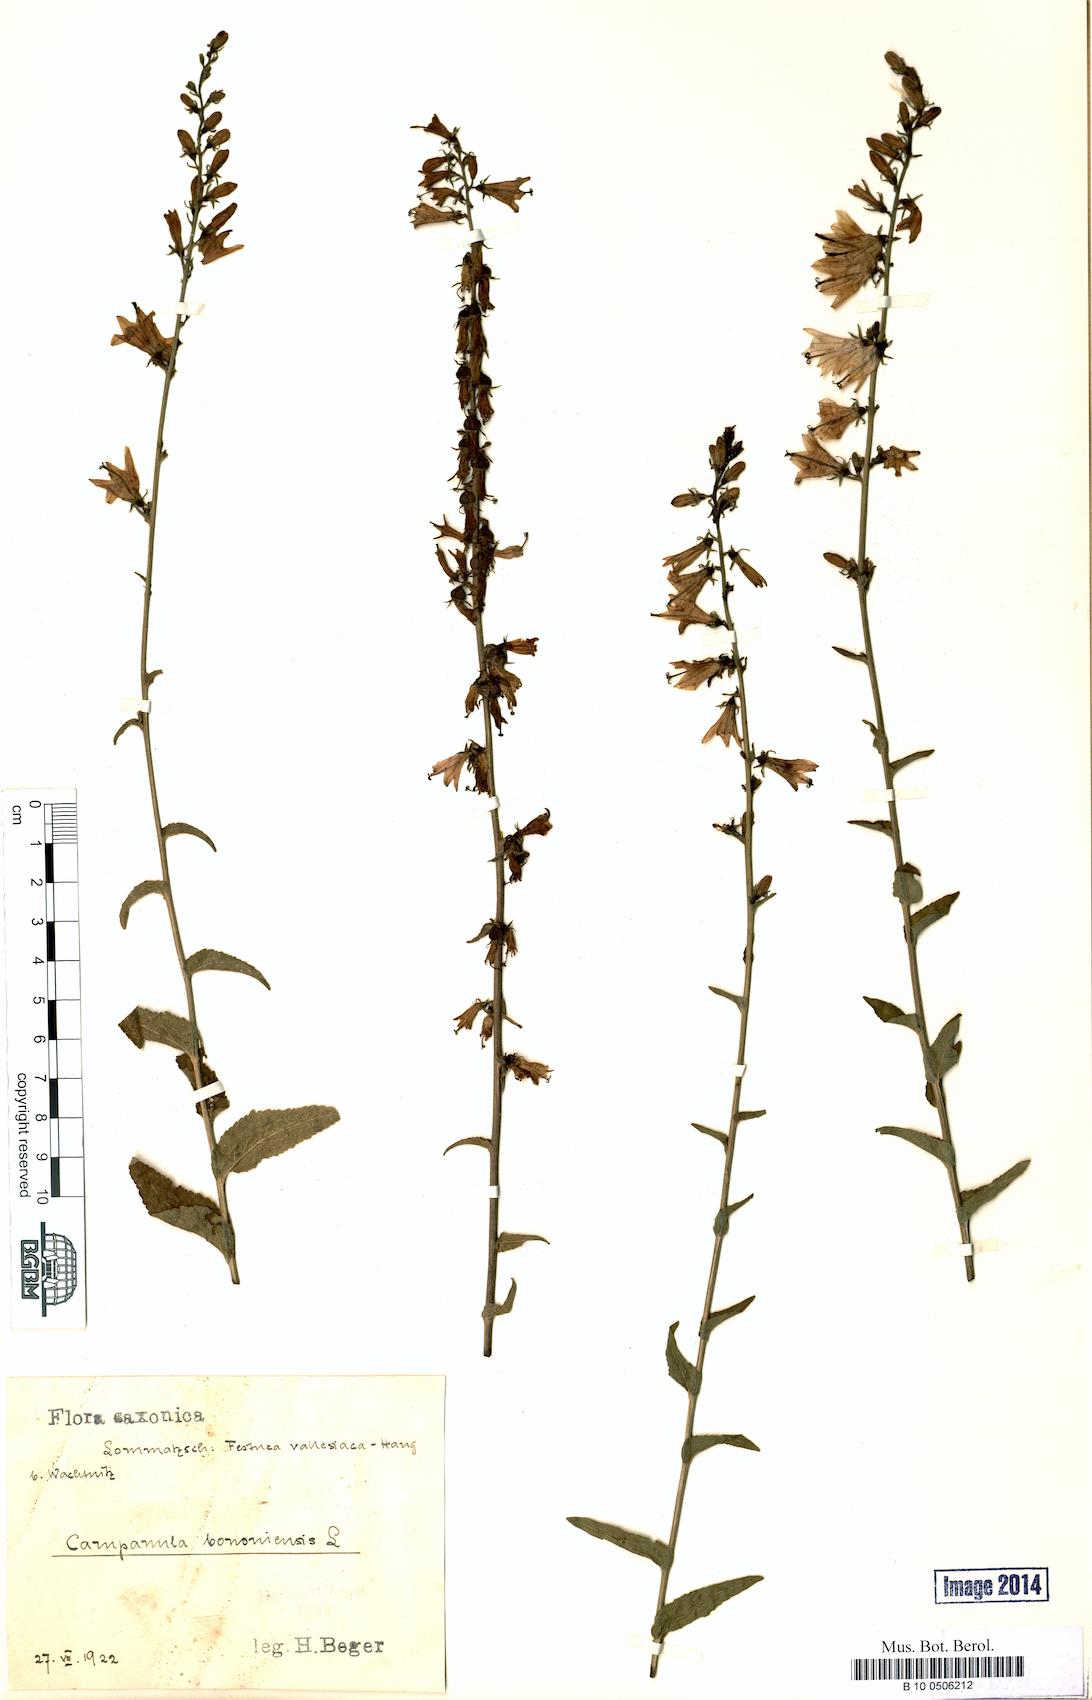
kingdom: Plantae
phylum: Tracheophyta
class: Magnoliopsida
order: Asterales
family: Campanulaceae
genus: Campanula
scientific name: Campanula bononiensis
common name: Pale bellflower
